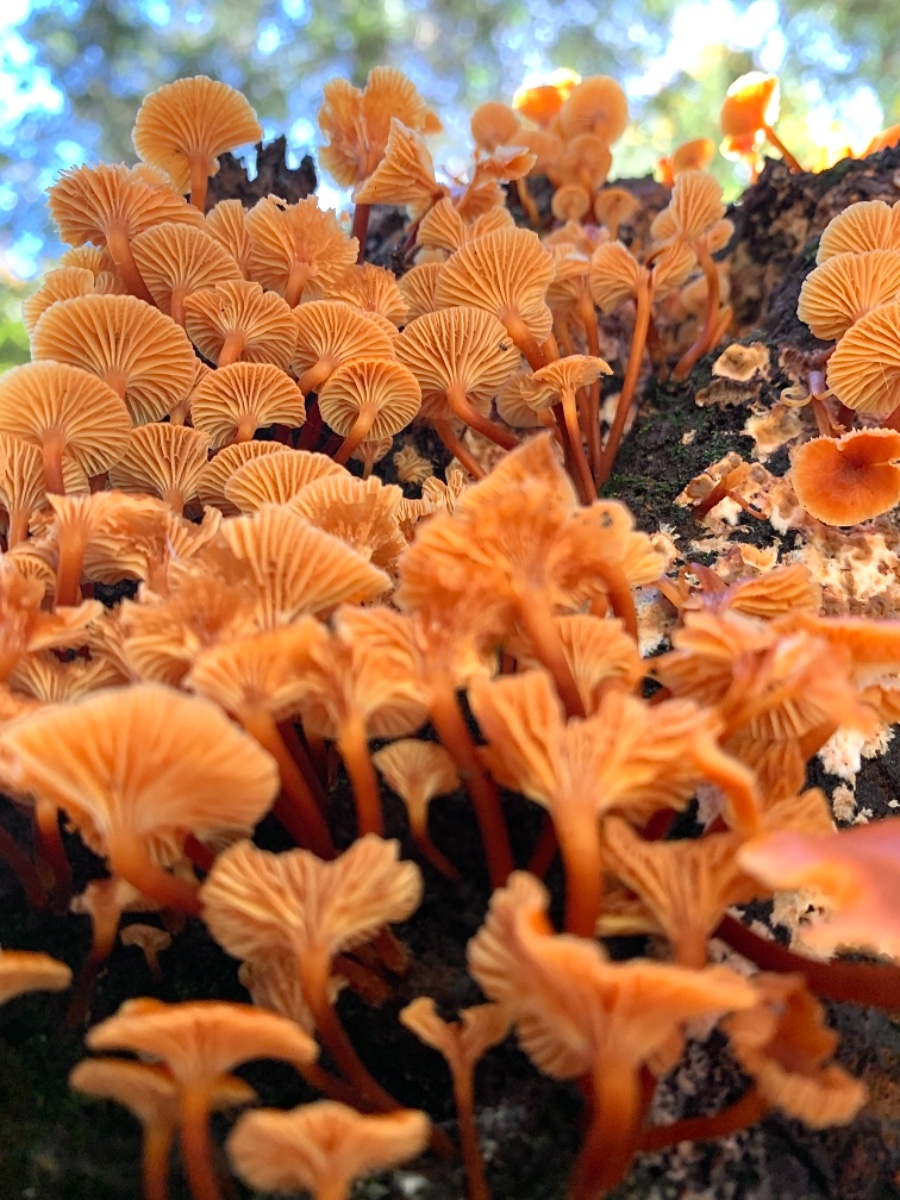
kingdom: Fungi
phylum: Basidiomycota
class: Agaricomycetes
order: Agaricales
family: Mycenaceae
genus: Xeromphalina
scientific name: Xeromphalina campanella
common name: klokke-tørhat
